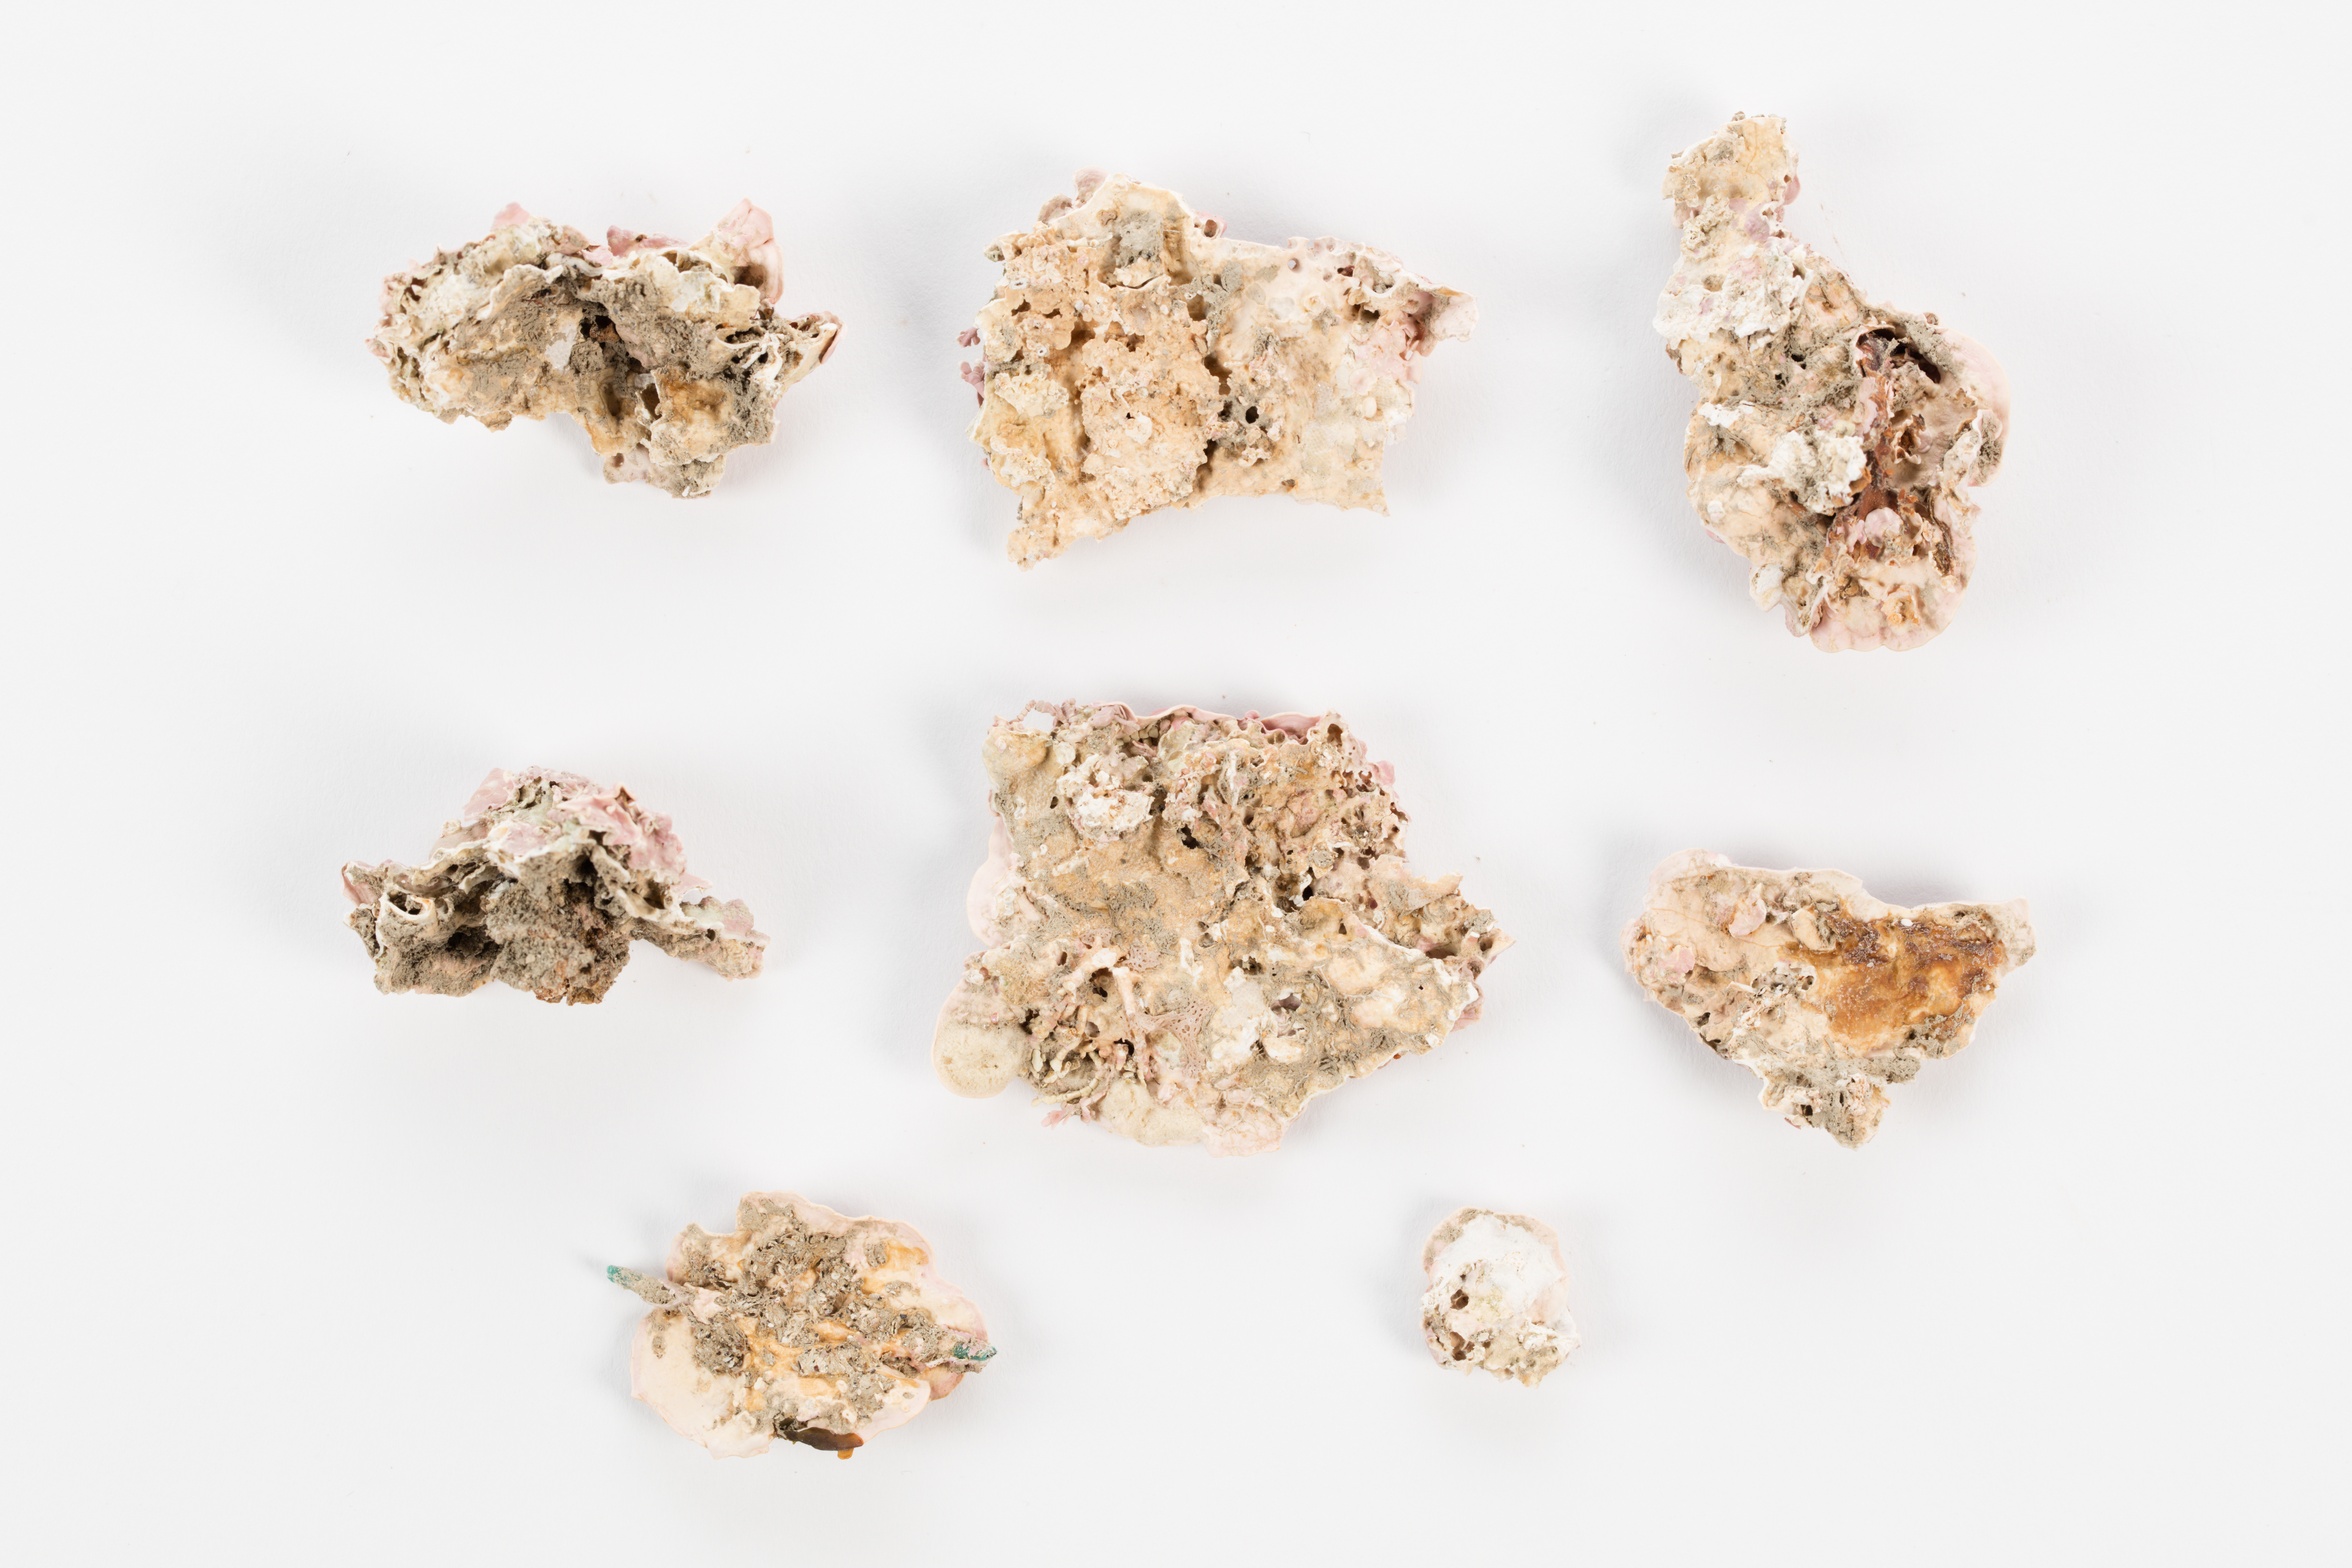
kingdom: Plantae
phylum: Rhodophyta
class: Florideophyceae
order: Corallinales
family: Hapalidiaceae
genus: Synarthrophyton
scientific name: Synarthrophyton patena
